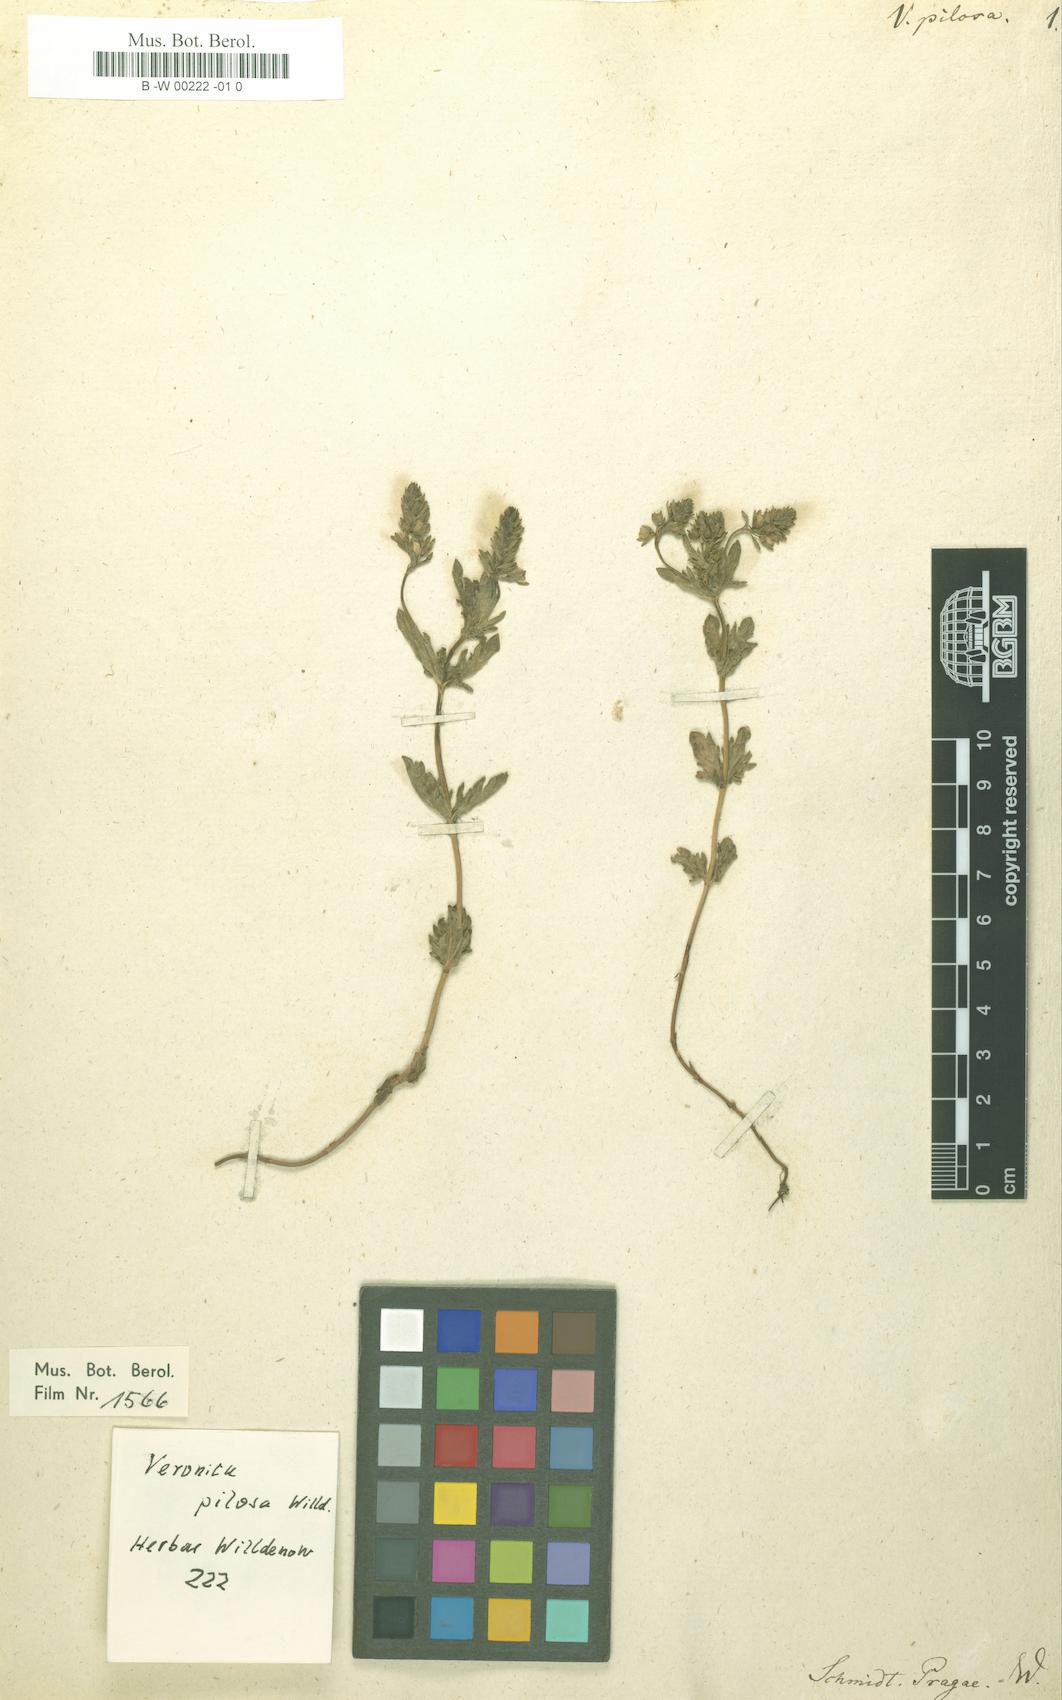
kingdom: Plantae
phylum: Tracheophyta
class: Magnoliopsida
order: Lamiales
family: Plantaginaceae
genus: Veronica
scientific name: Veronica
